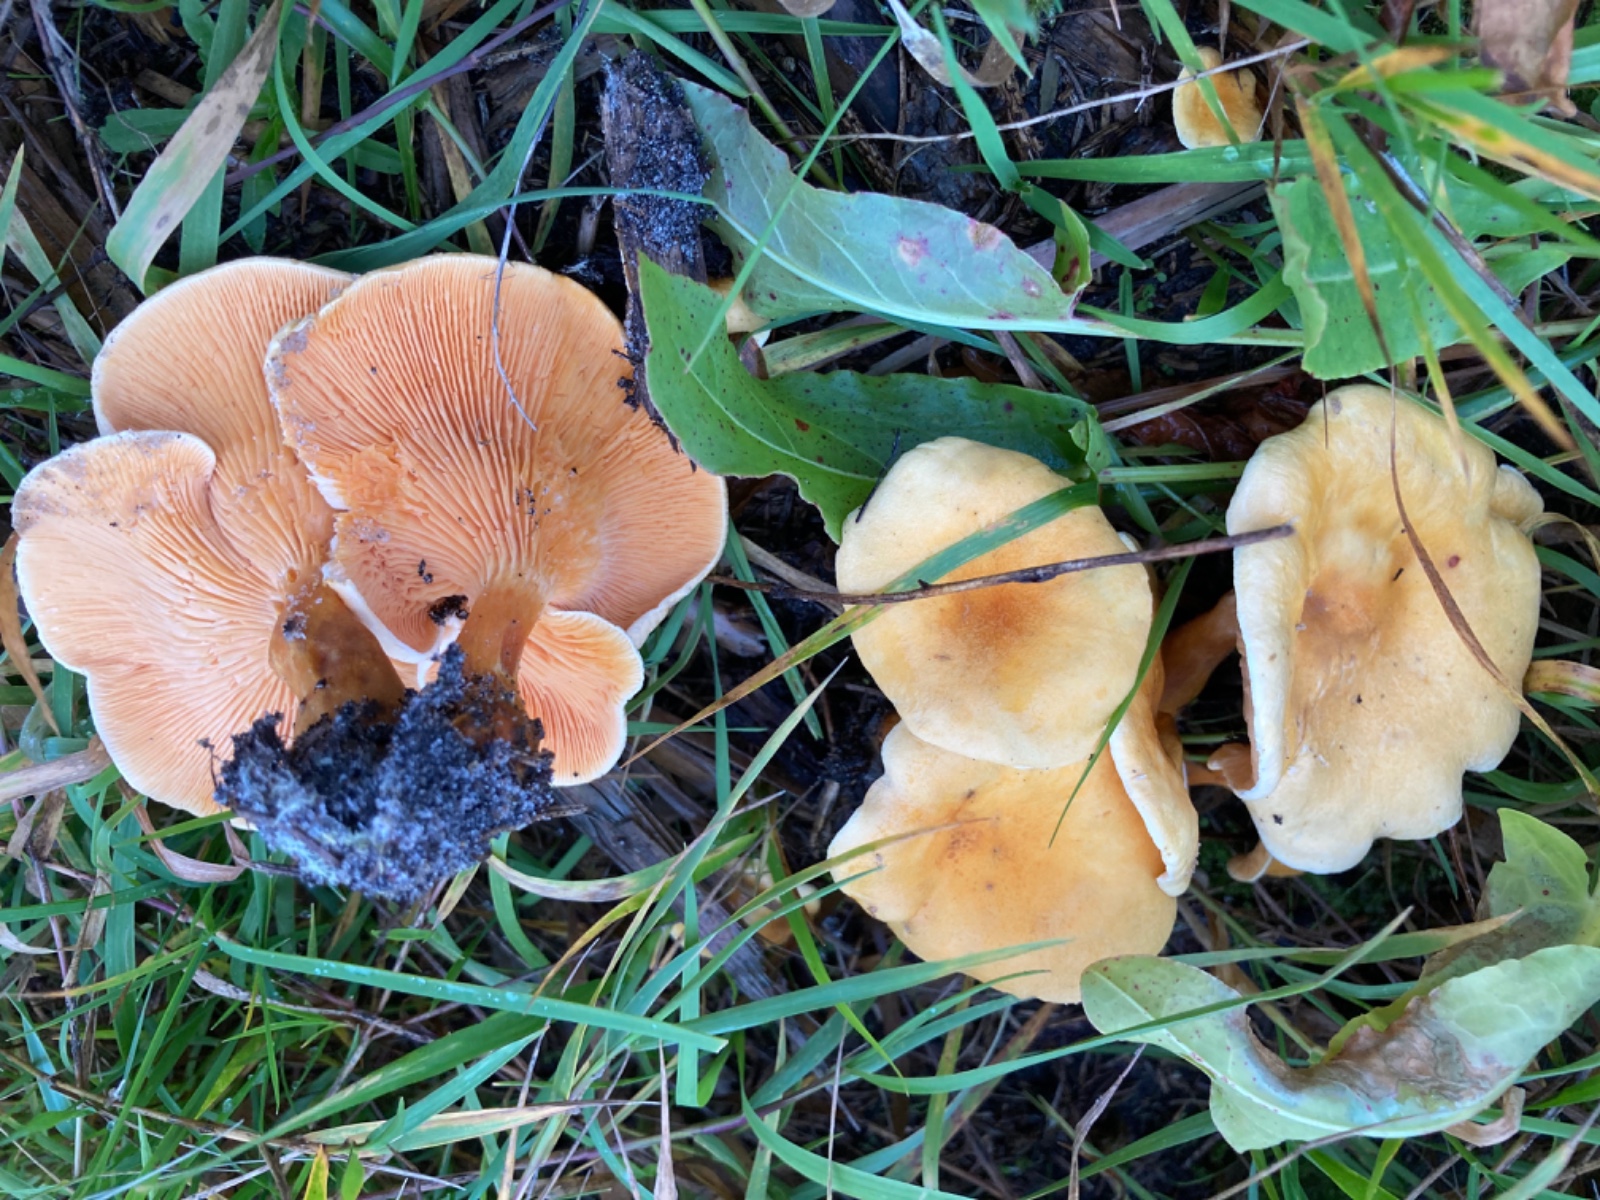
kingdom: Fungi
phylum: Basidiomycota
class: Agaricomycetes
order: Boletales
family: Hygrophoropsidaceae
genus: Hygrophoropsis
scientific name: Hygrophoropsis aurantiaca
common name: almindelig orangekantarel
